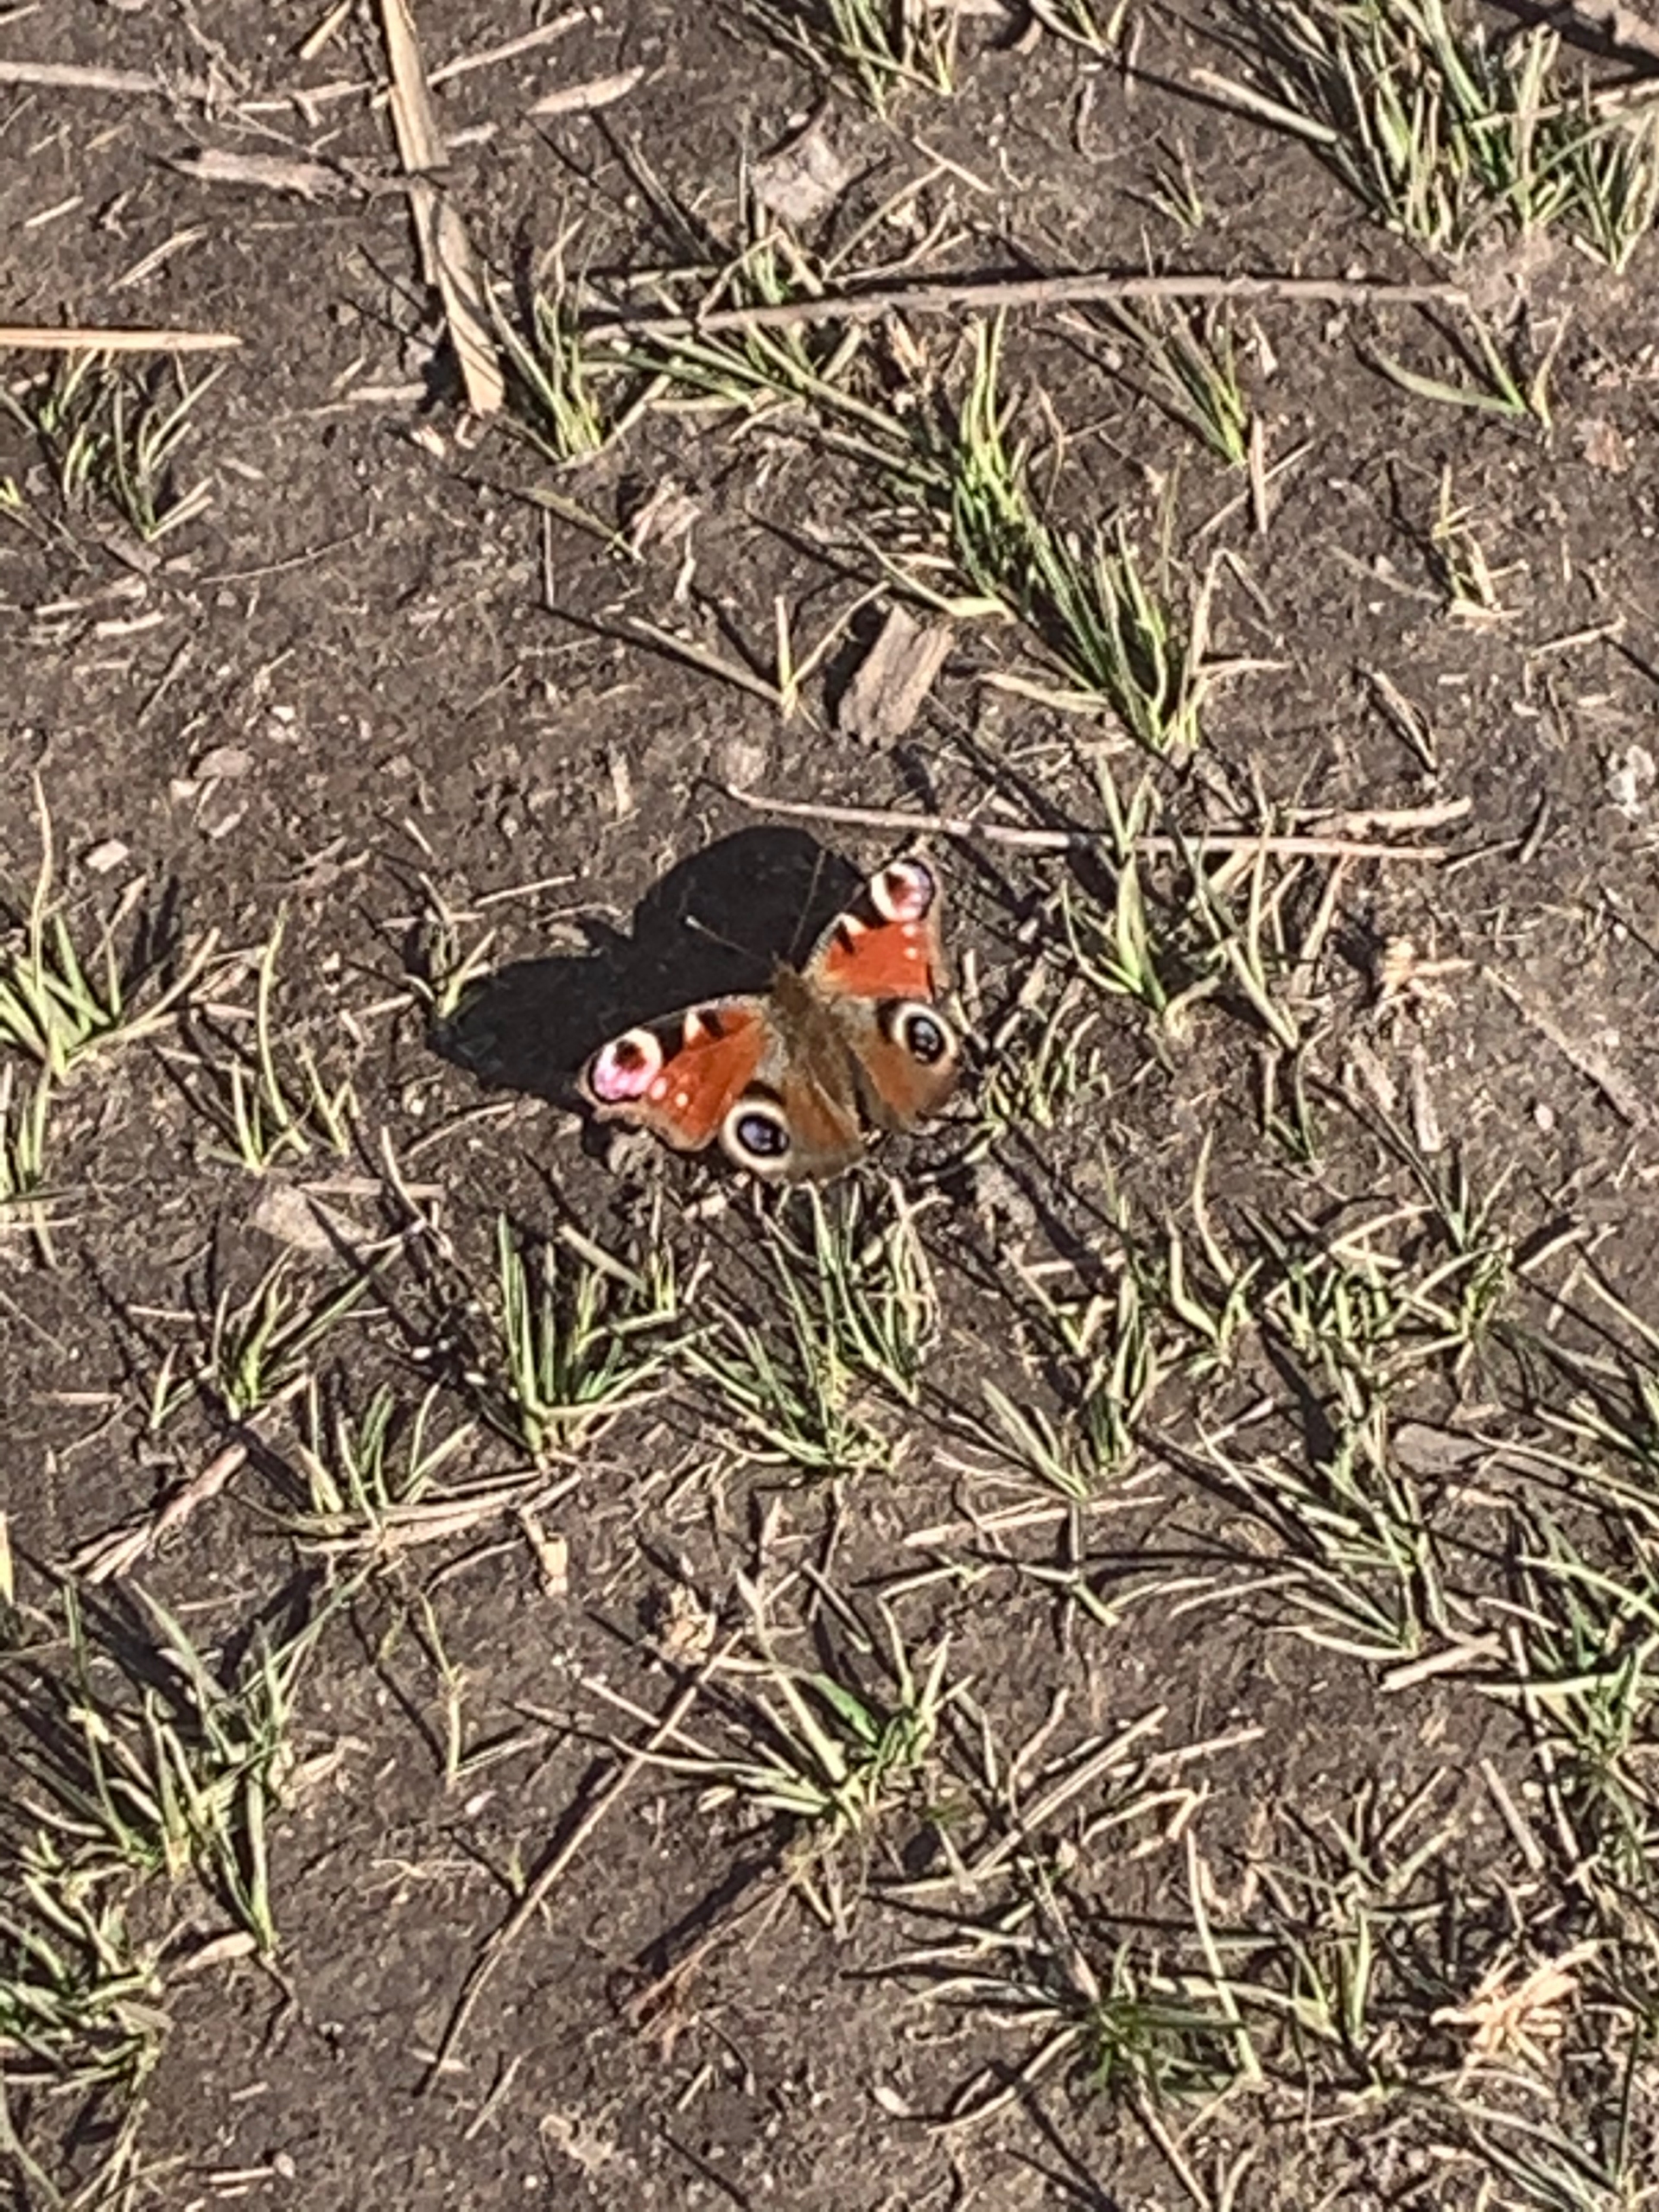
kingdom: Animalia
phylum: Arthropoda
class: Insecta
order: Lepidoptera
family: Nymphalidae
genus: Aglais
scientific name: Aglais io
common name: Dagpåfugleøje
